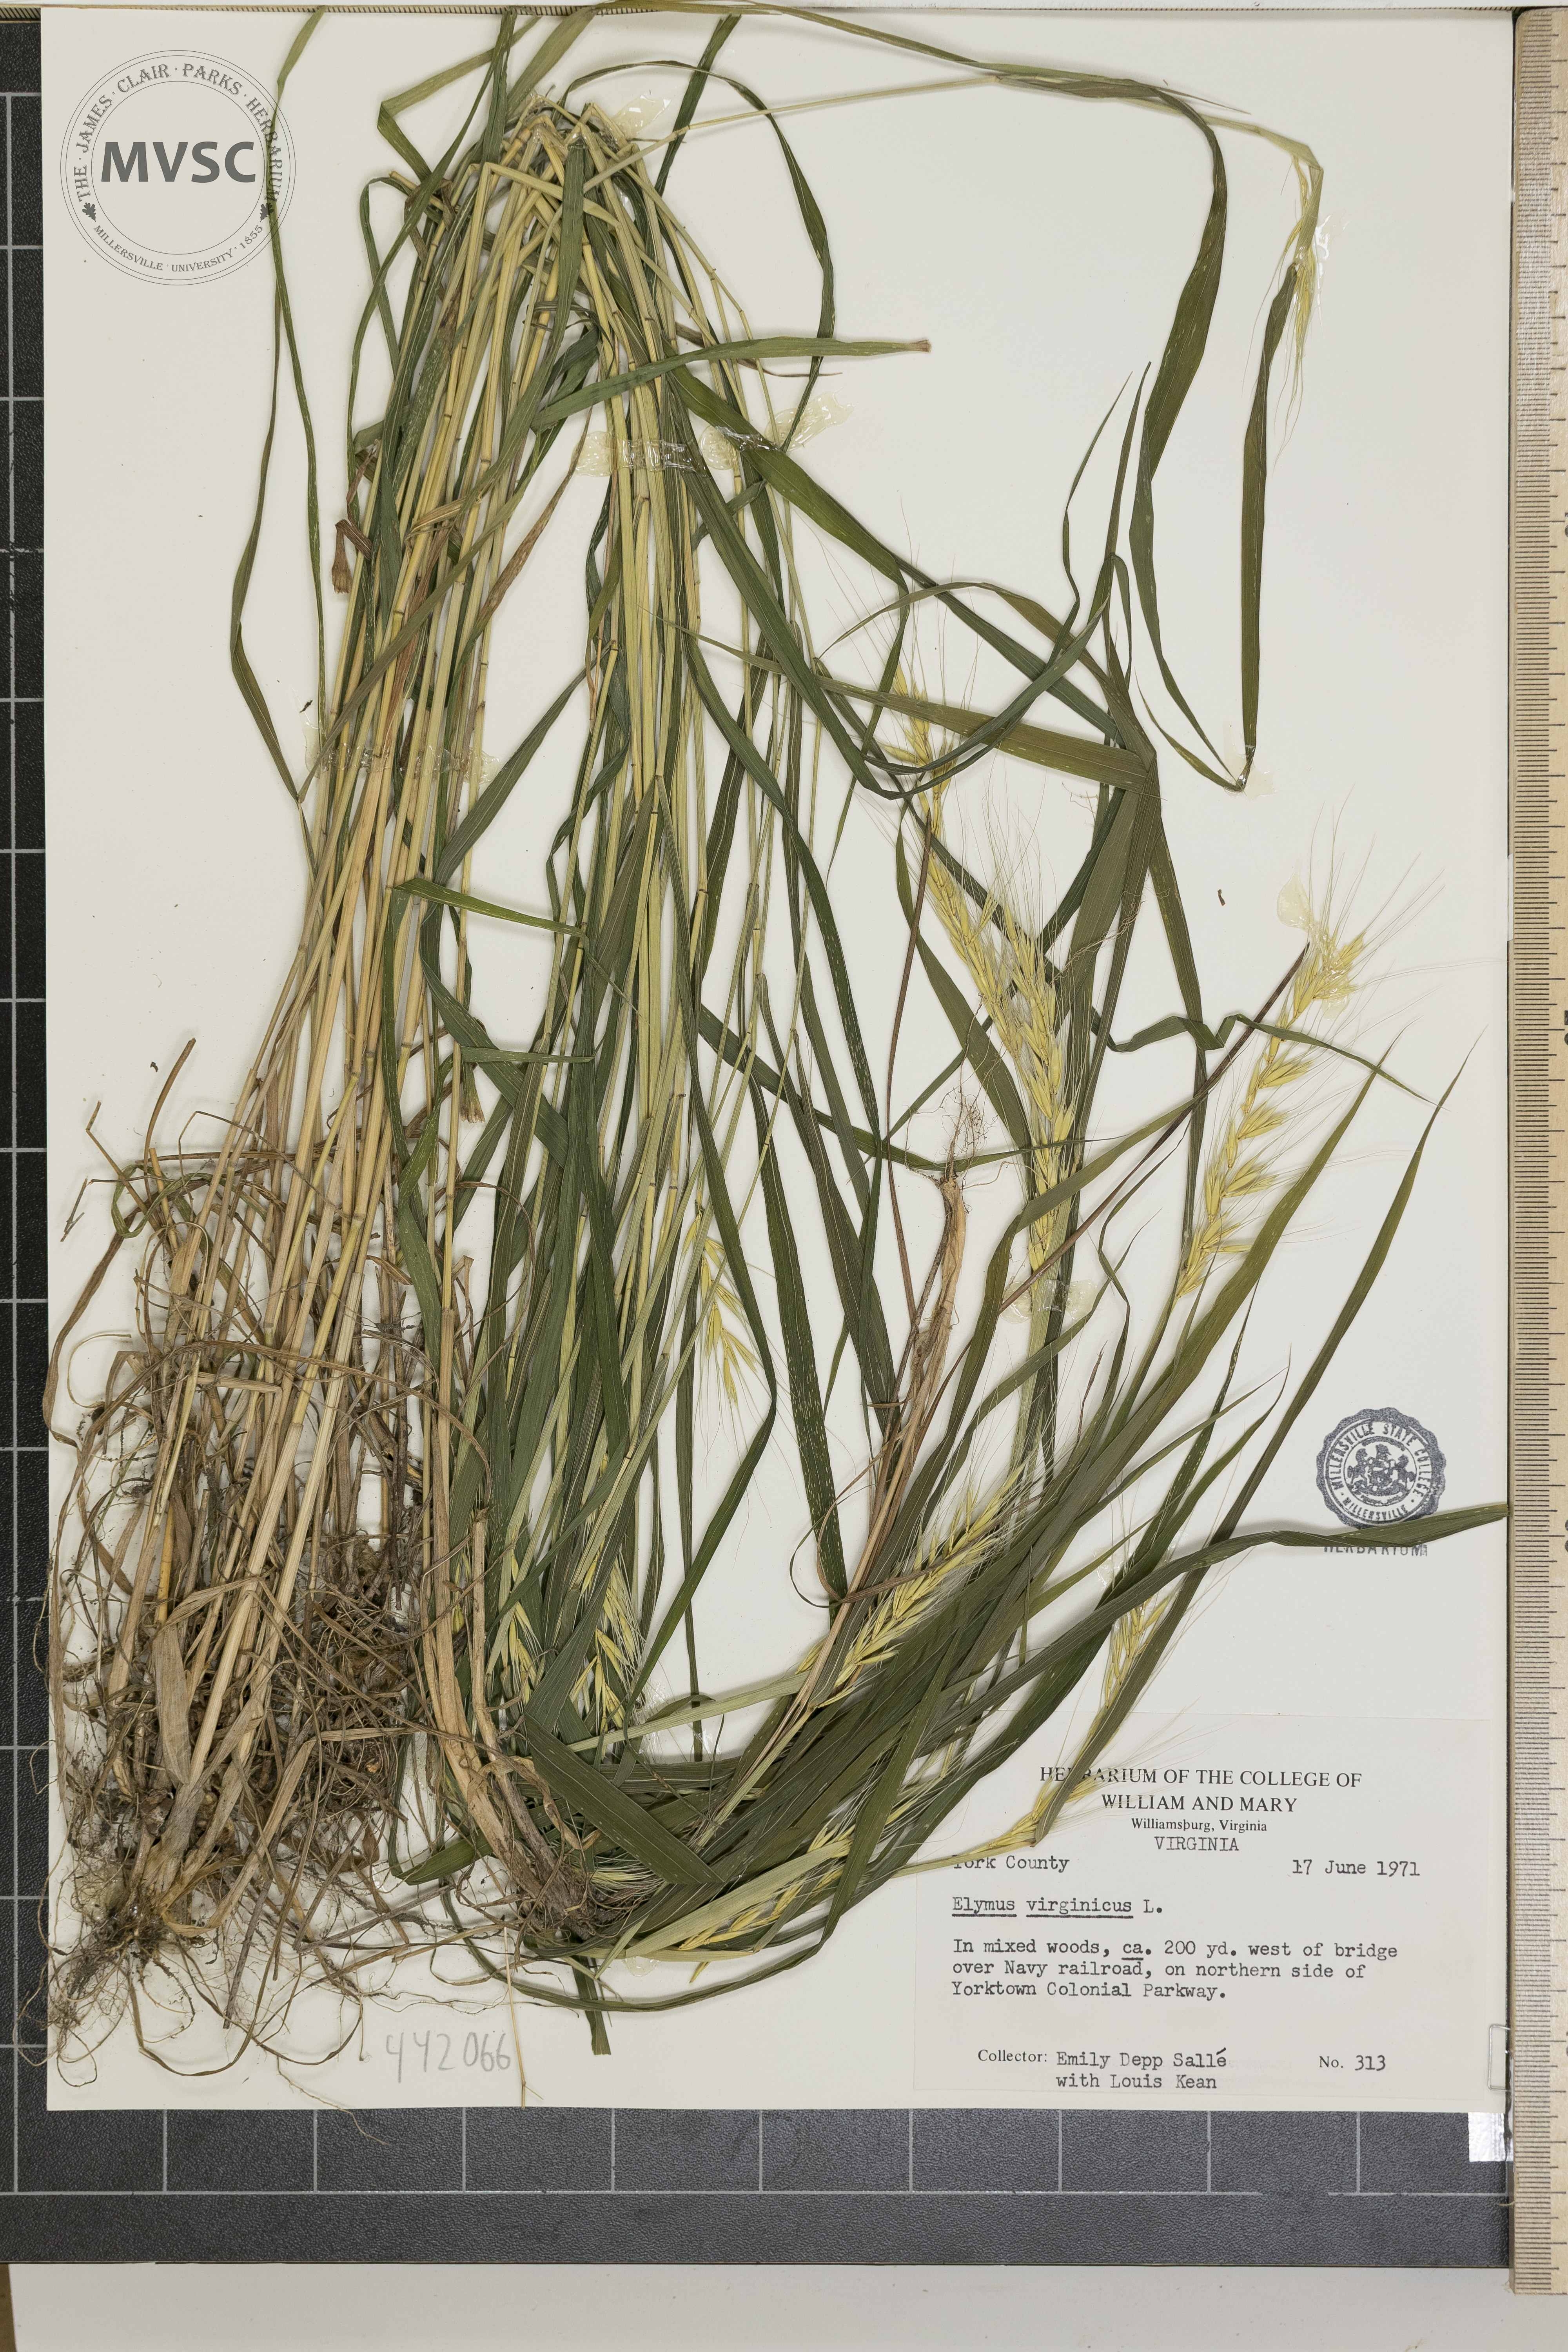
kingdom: Plantae
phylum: Tracheophyta
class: Liliopsida
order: Poales
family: Poaceae
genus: Elymus
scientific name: Elymus hystrix
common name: Bottlebrush grass
